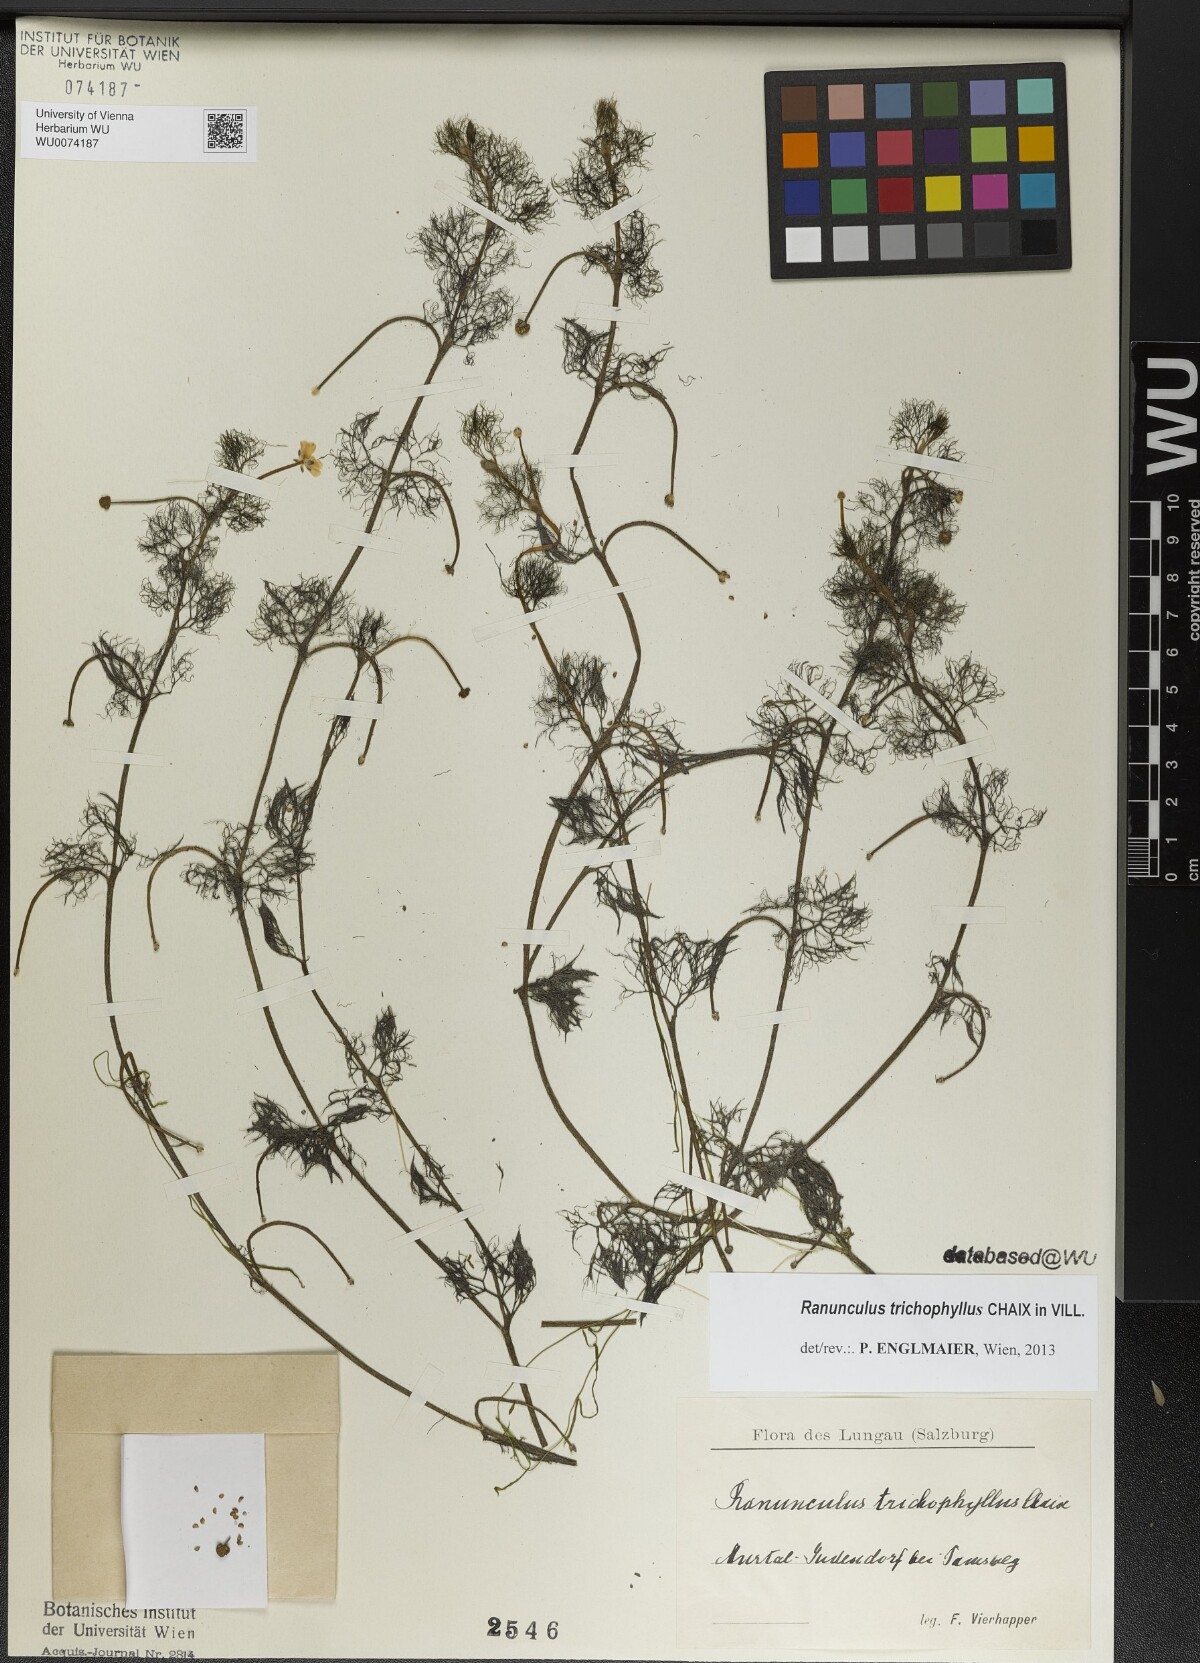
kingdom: Plantae
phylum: Tracheophyta
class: Magnoliopsida
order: Ranunculales
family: Ranunculaceae
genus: Ranunculus
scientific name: Ranunculus trichophyllus
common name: Thread-leaved water-crowfoot
